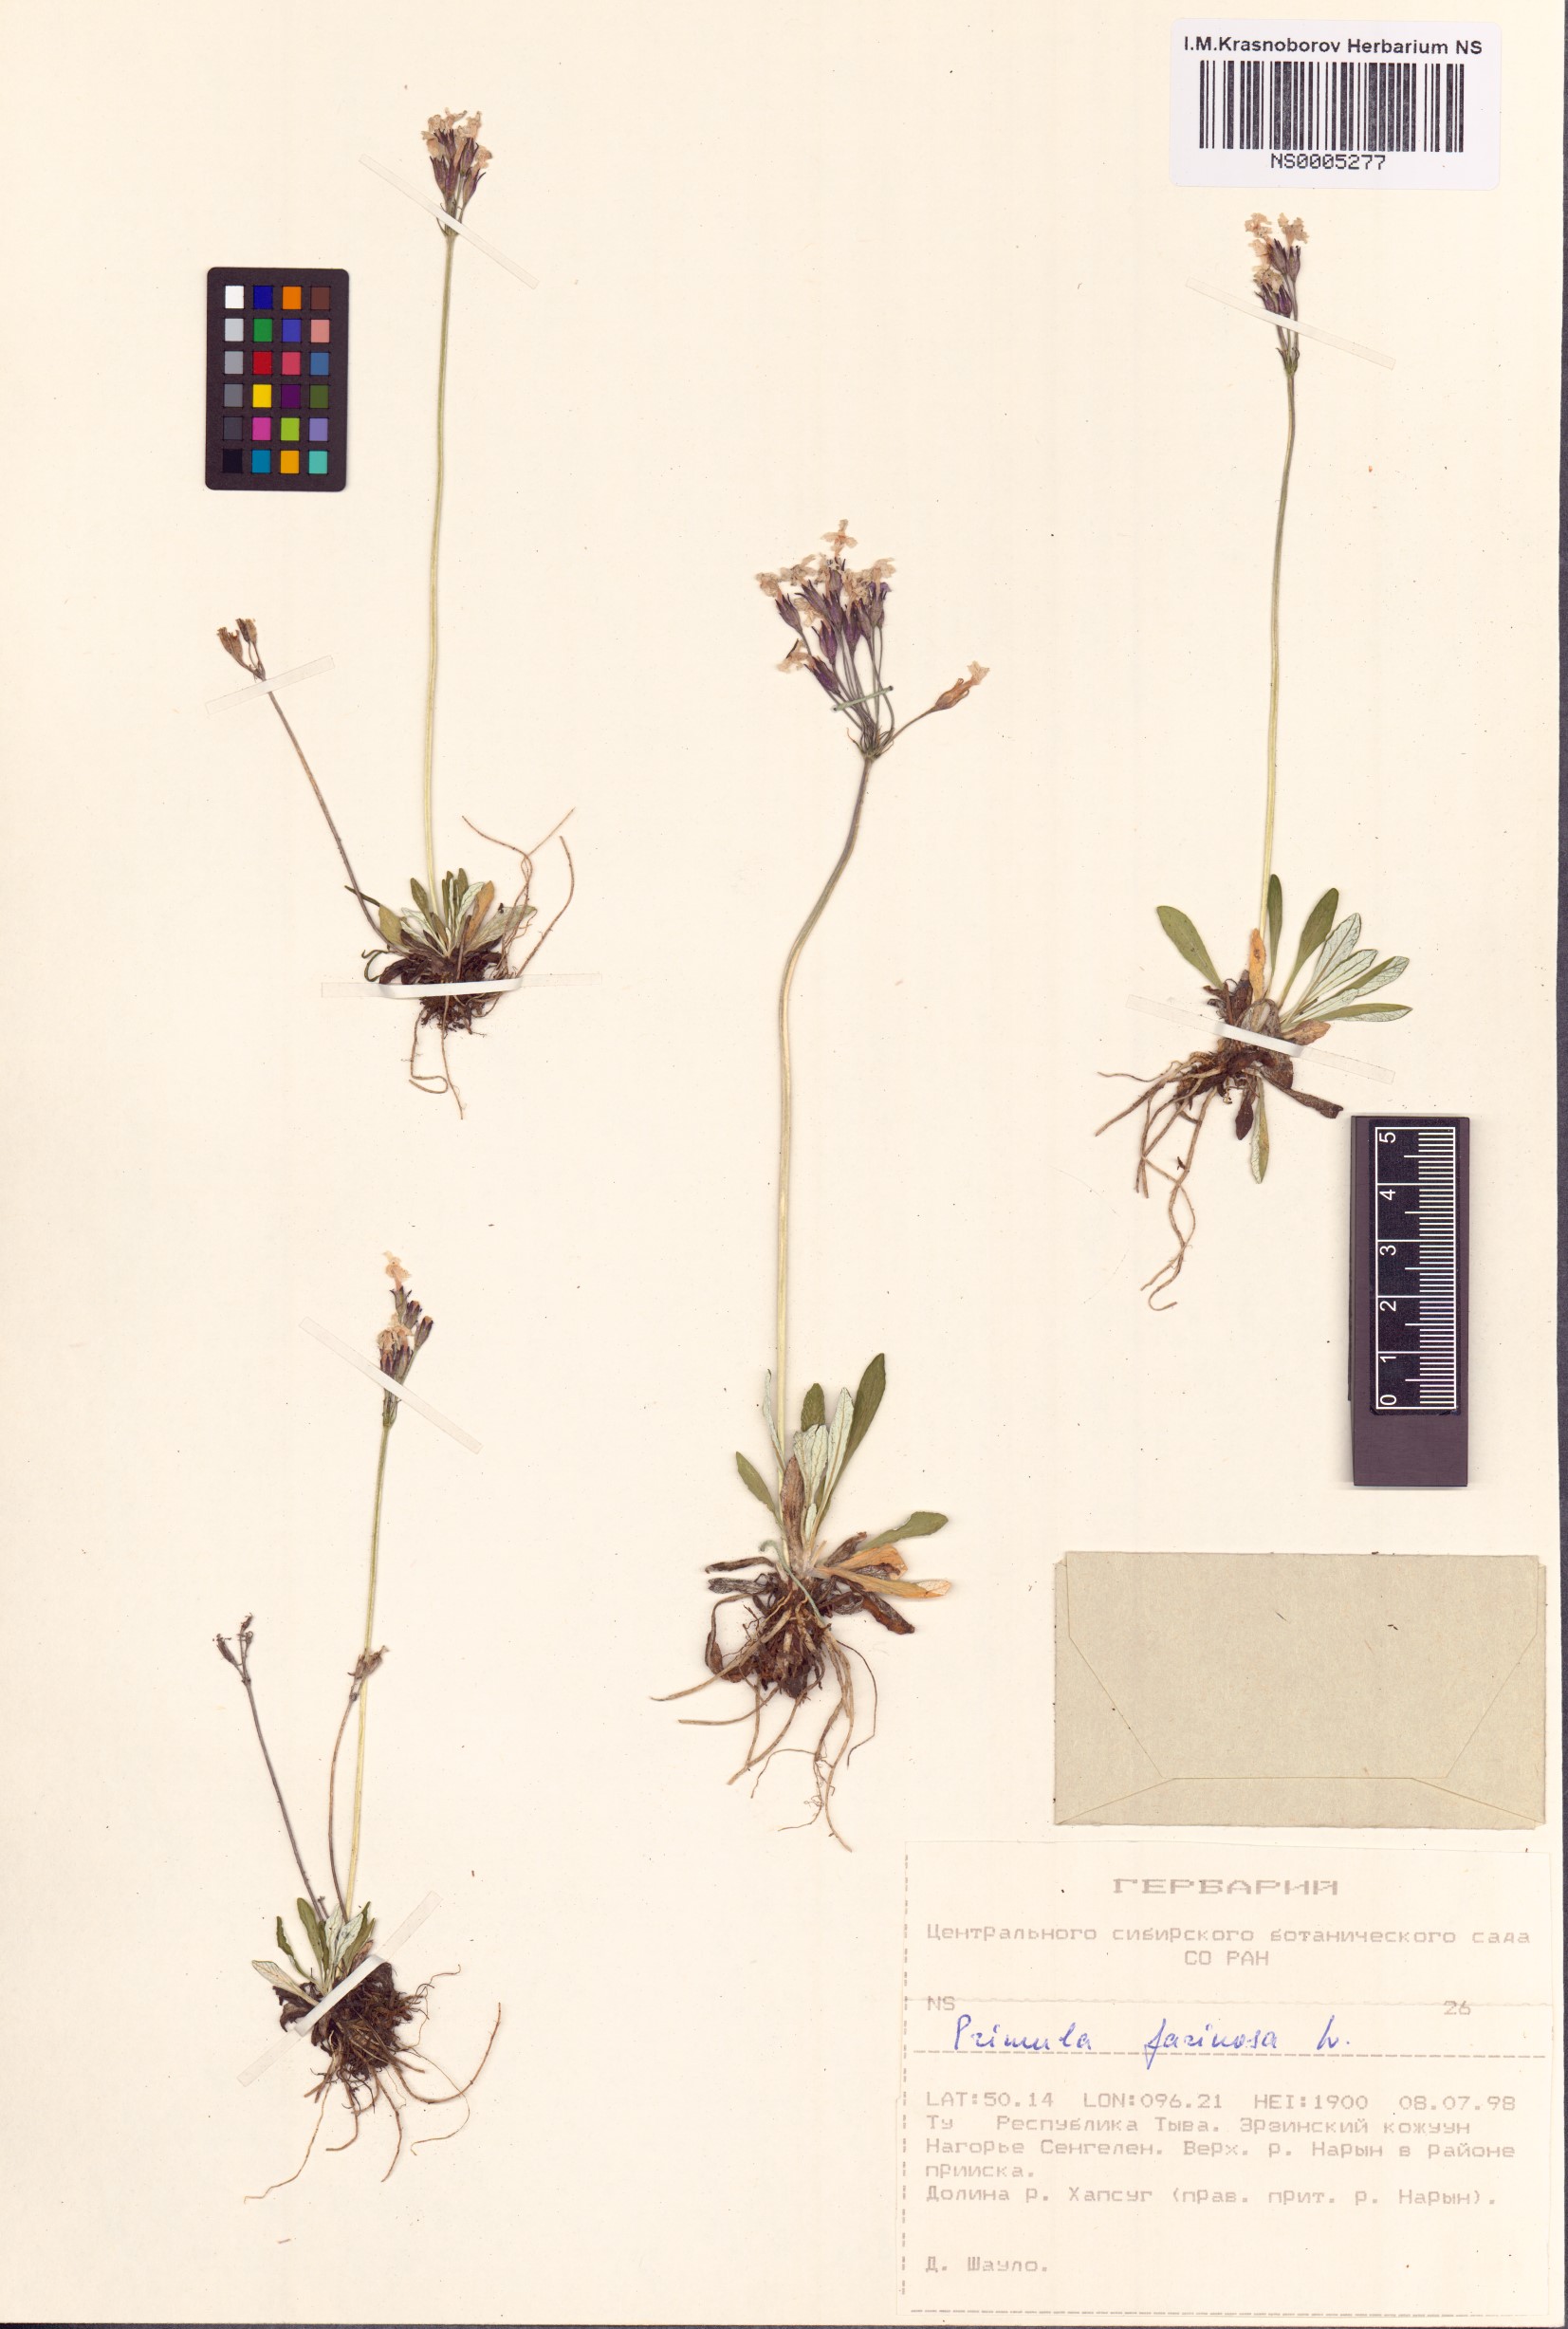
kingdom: Plantae
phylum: Tracheophyta
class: Magnoliopsida
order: Ericales
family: Primulaceae
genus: Primula
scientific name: Primula farinosa
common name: Bird's-eye primrose
